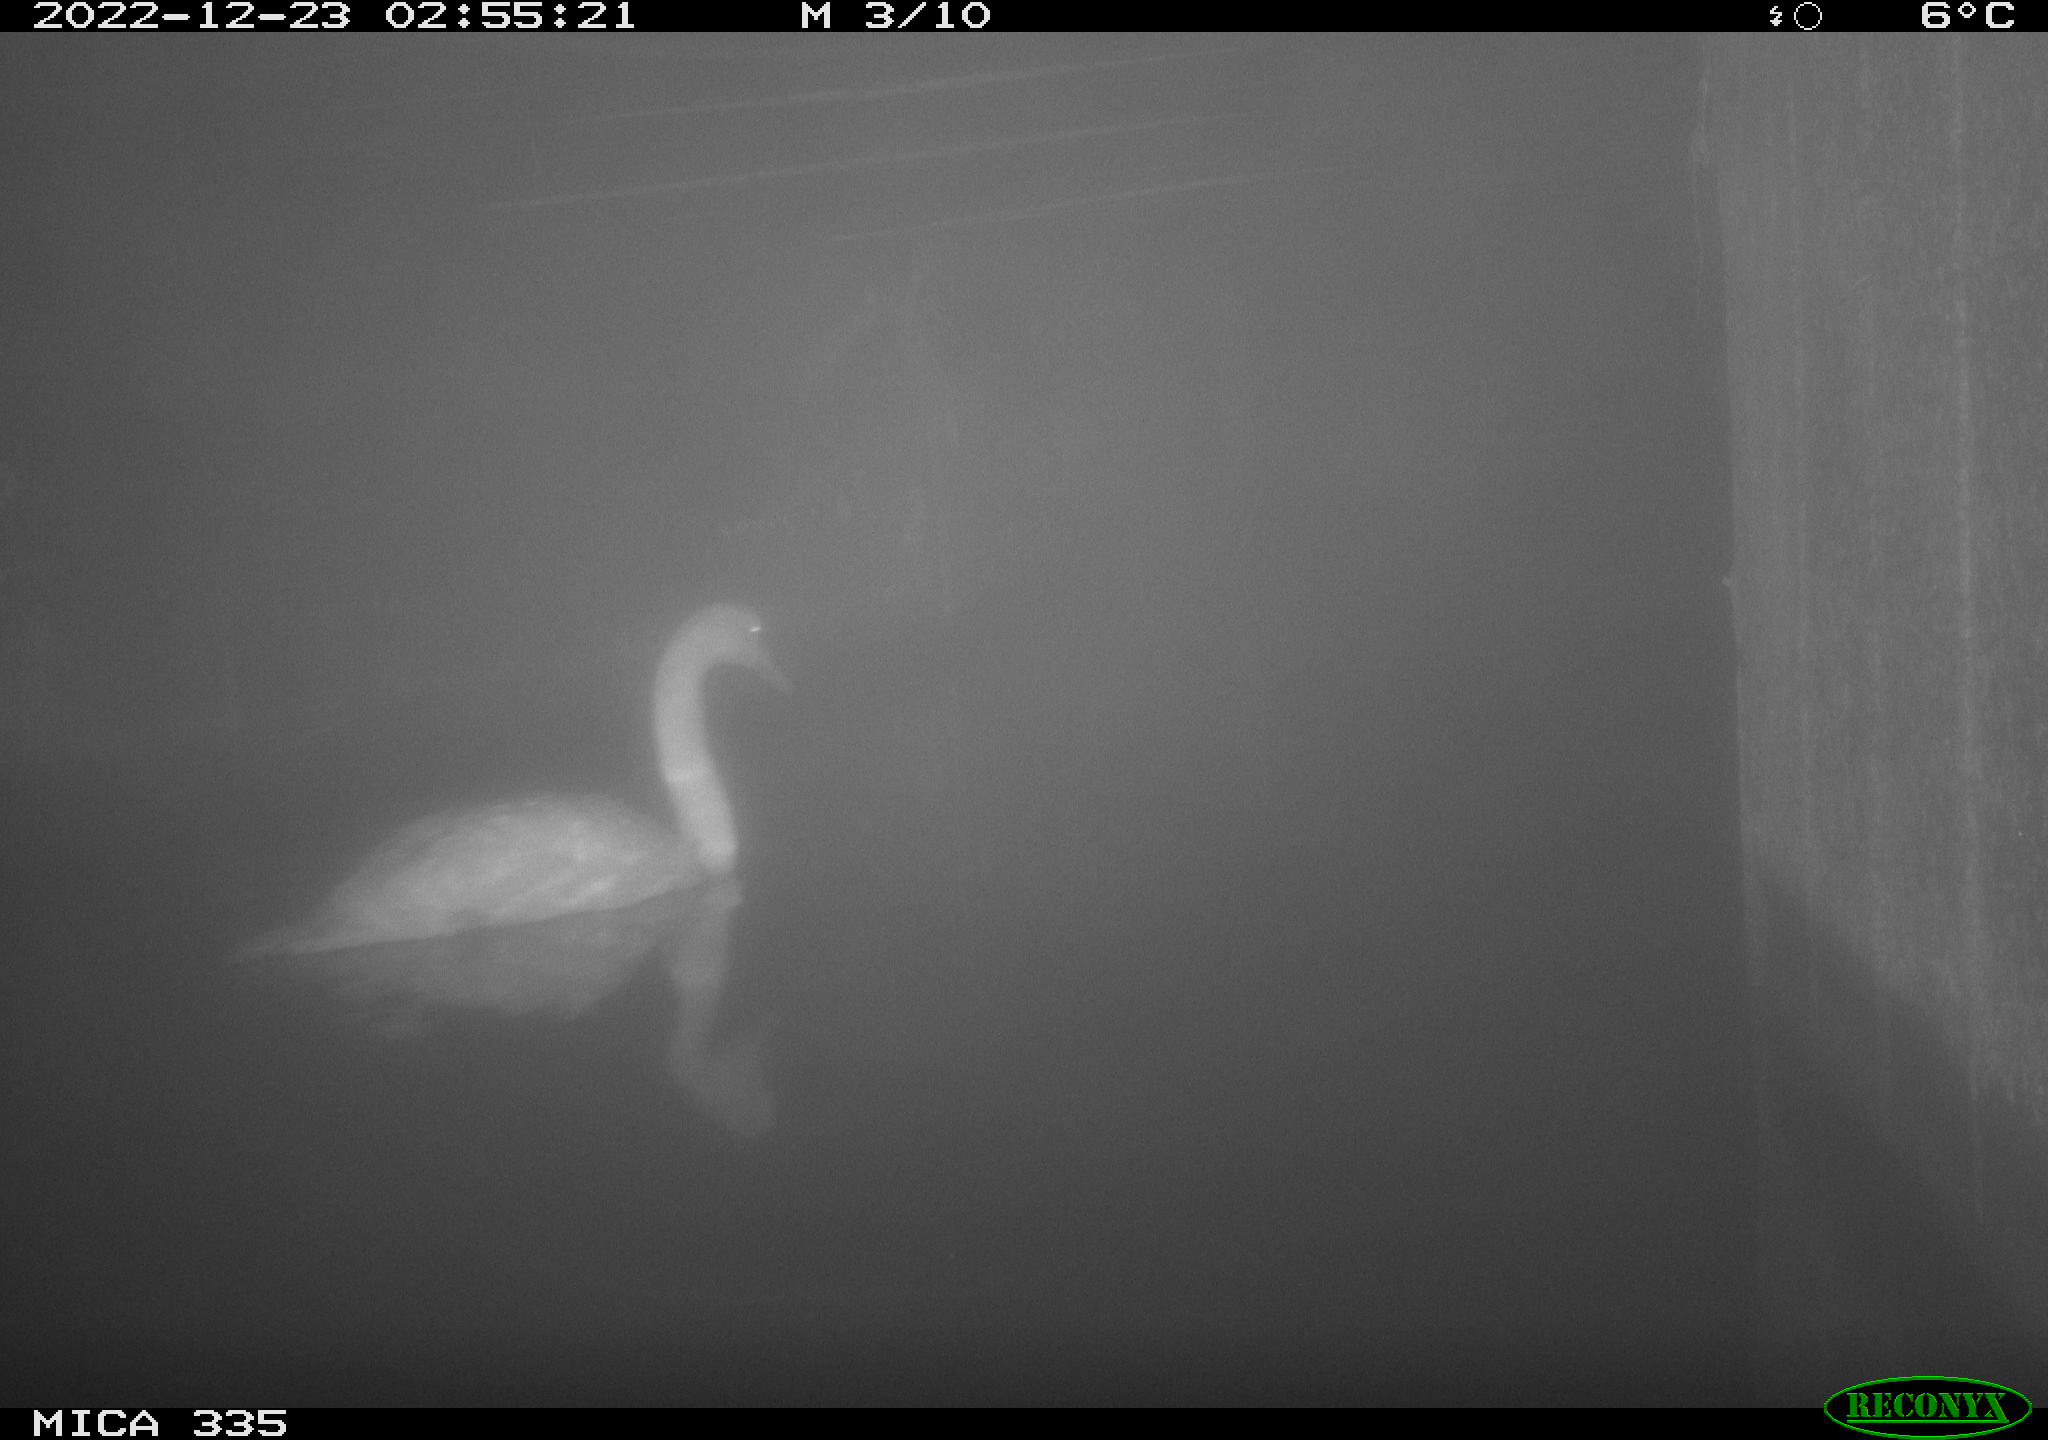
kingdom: Animalia
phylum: Chordata
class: Aves
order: Anseriformes
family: Anatidae
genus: Cygnus
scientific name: Cygnus olor
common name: Mute swan
